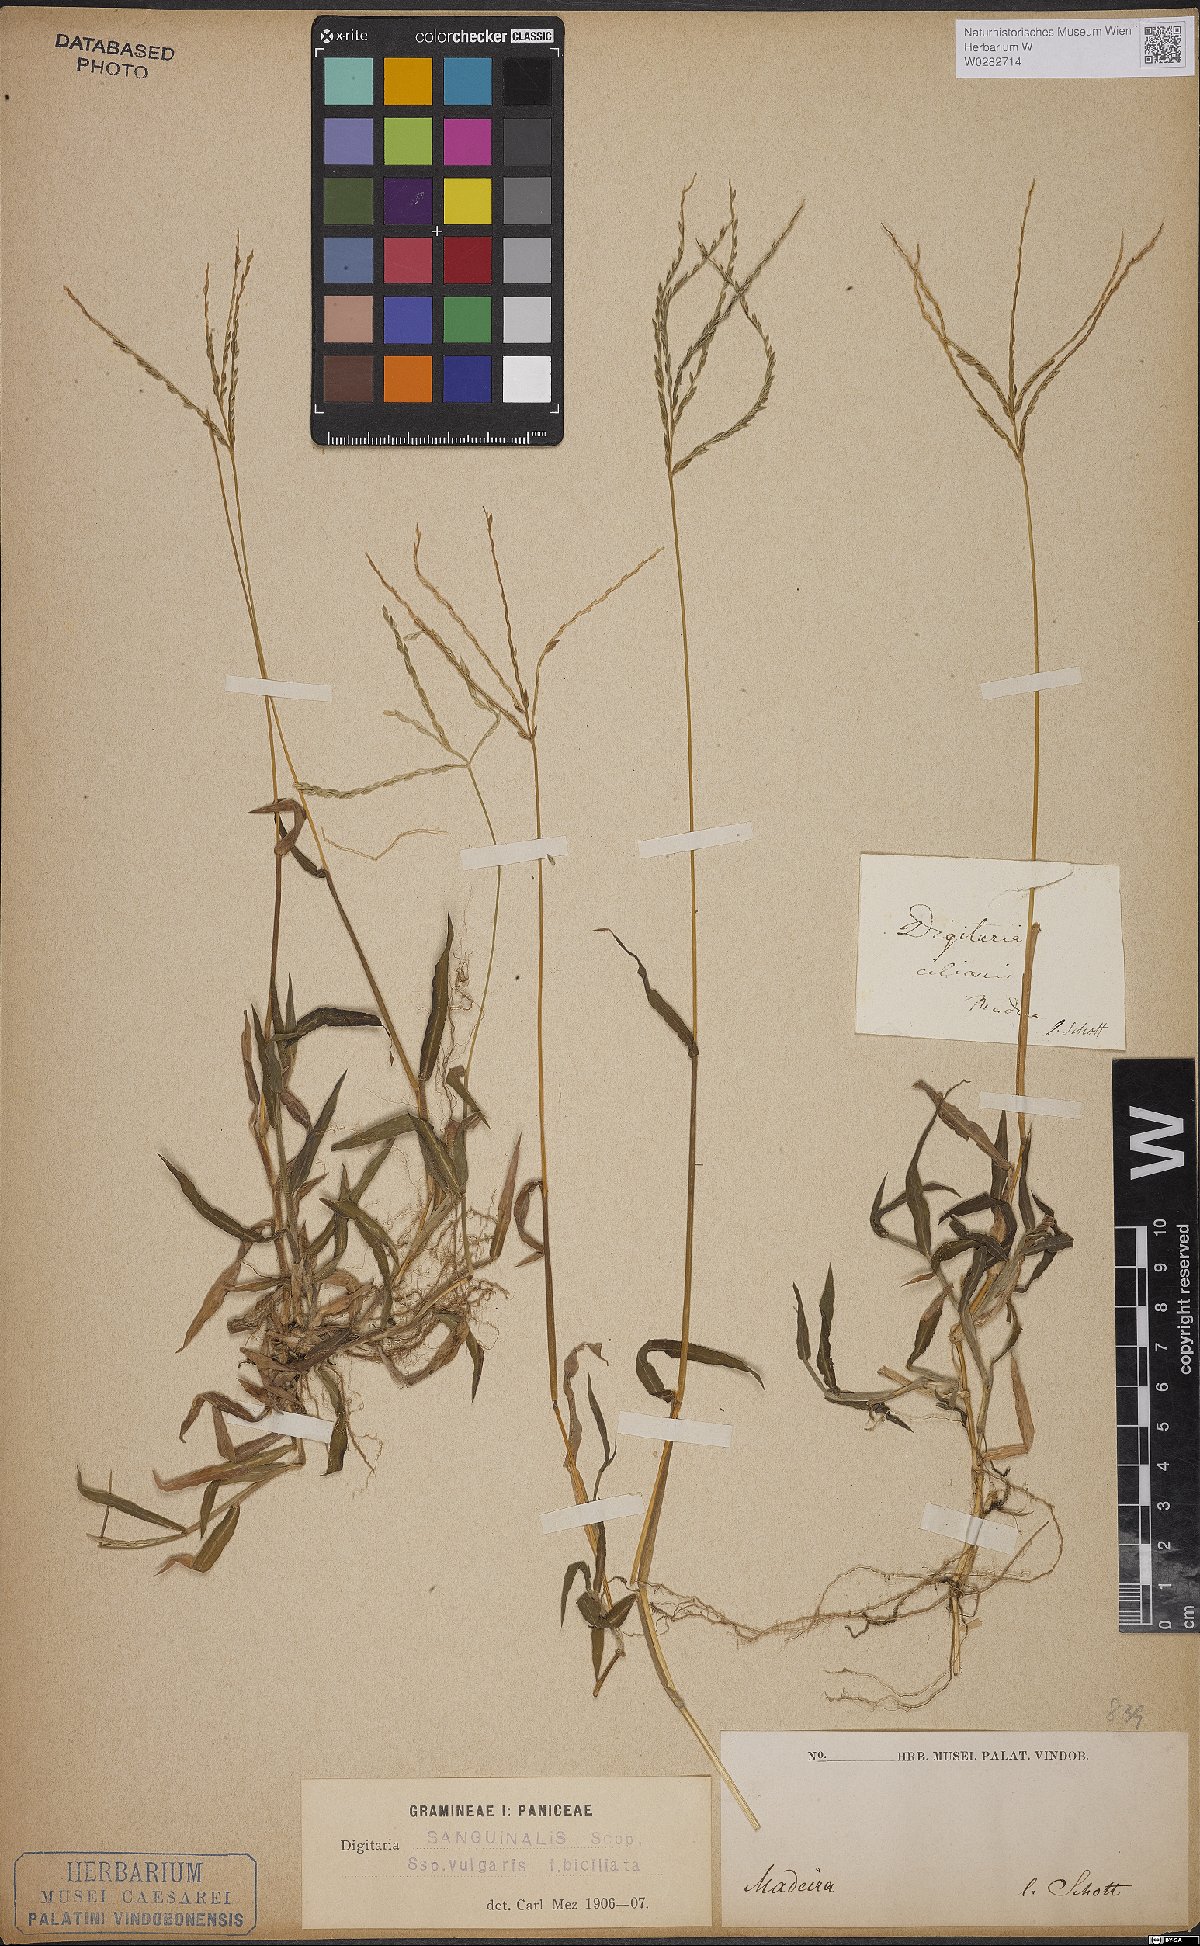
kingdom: Plantae
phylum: Tracheophyta
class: Liliopsida
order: Poales
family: Poaceae
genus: Digitaria
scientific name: Digitaria sanguinalis
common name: Hairy crabgrass
